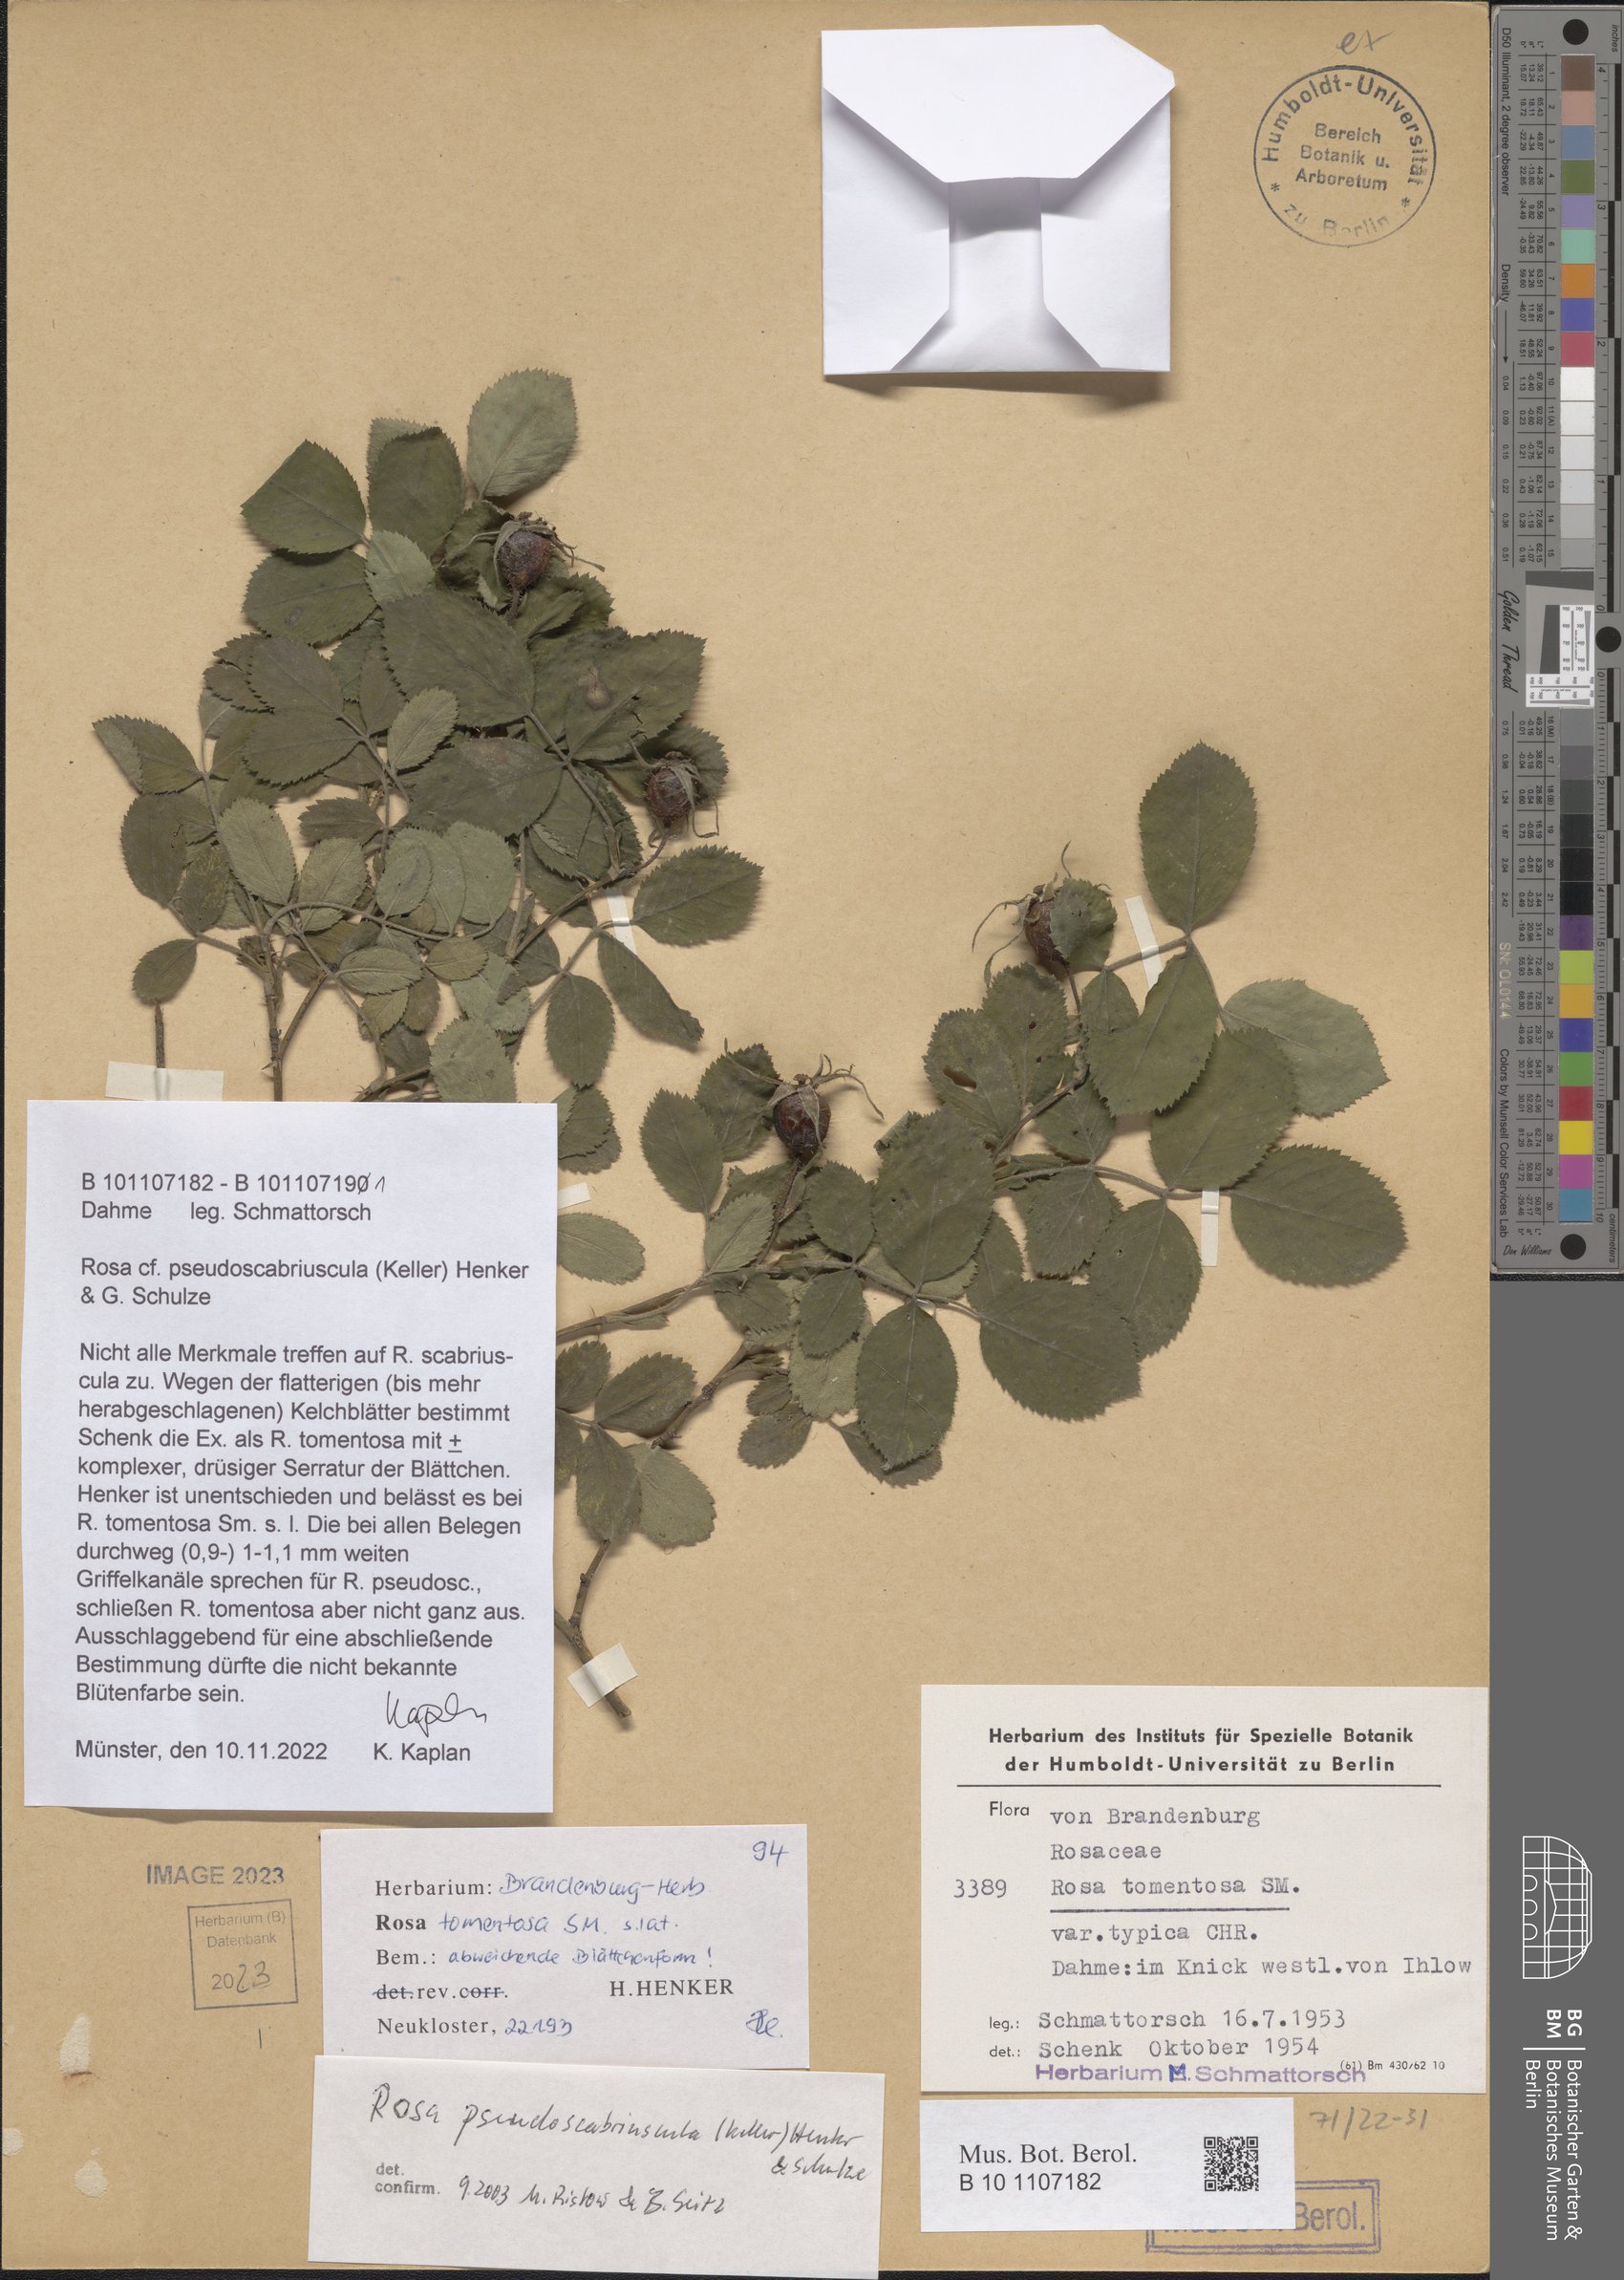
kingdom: Plantae
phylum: Tracheophyta
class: Magnoliopsida
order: Rosales
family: Rosaceae
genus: Rosa
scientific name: Rosa pseudoscabriuscula
